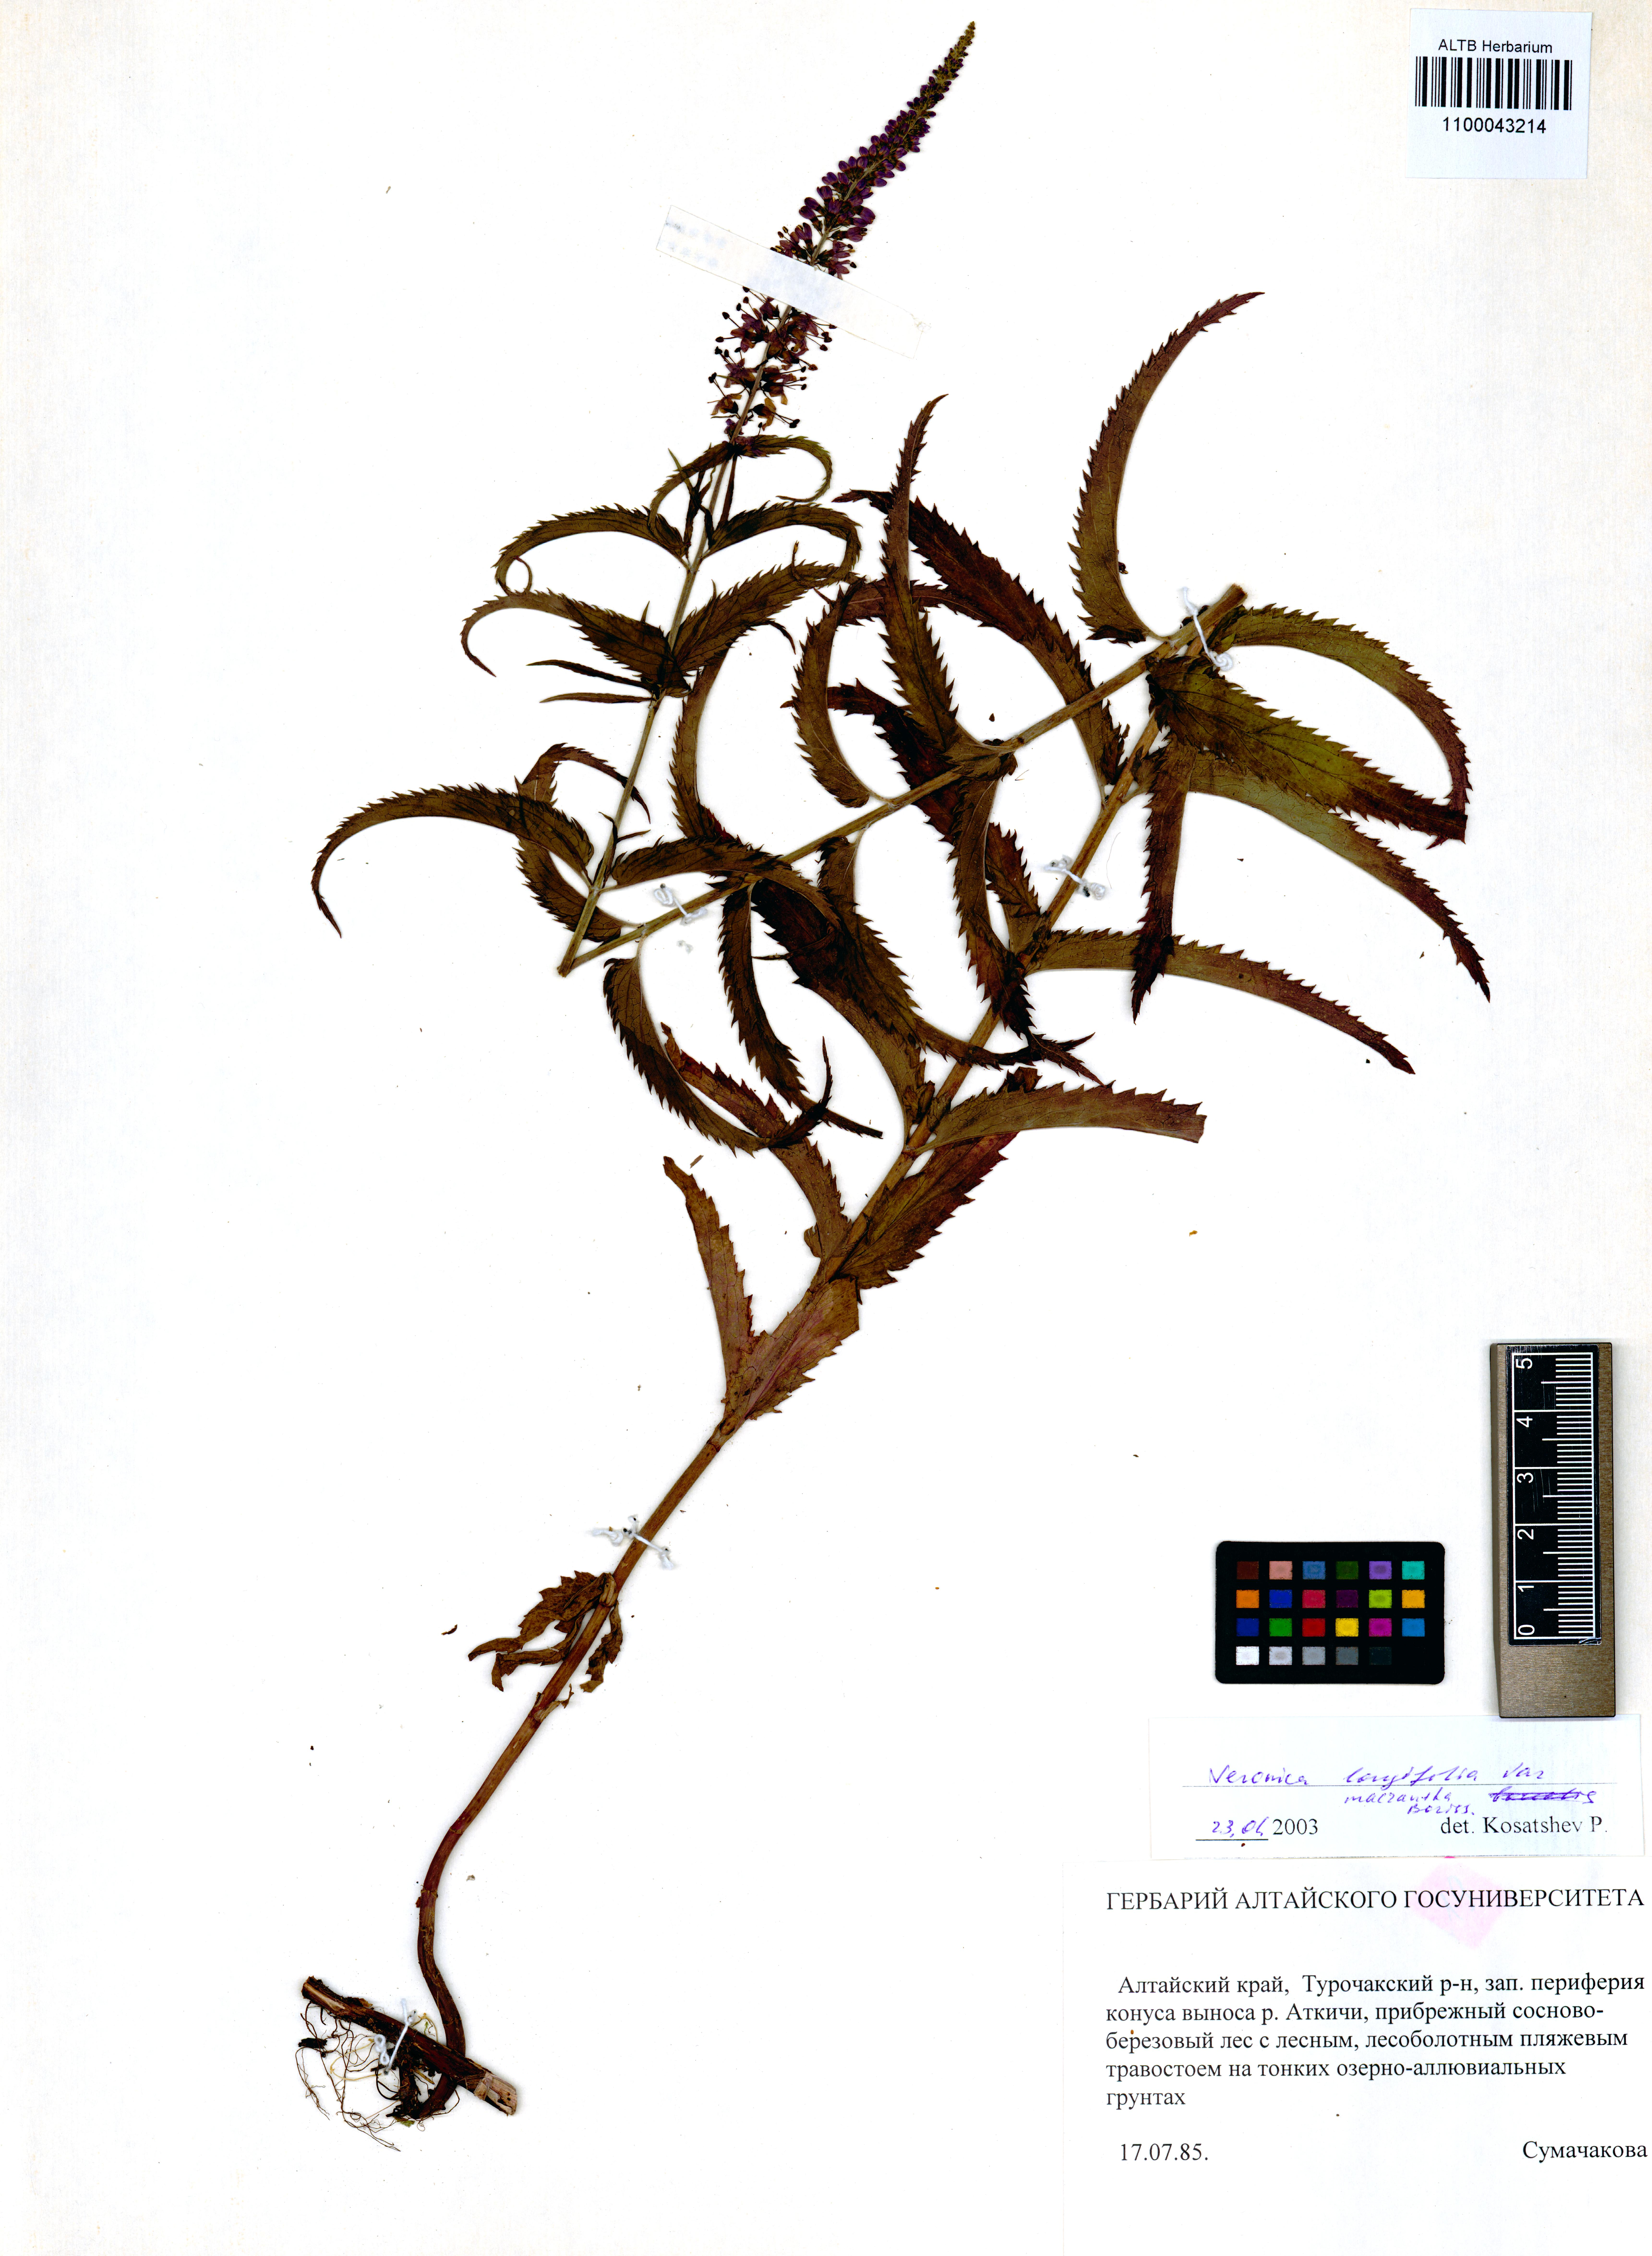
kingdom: Plantae
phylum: Tracheophyta
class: Magnoliopsida
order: Lamiales
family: Plantaginaceae
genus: Veronica
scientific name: Veronica longifolia
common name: Garden speedwell
